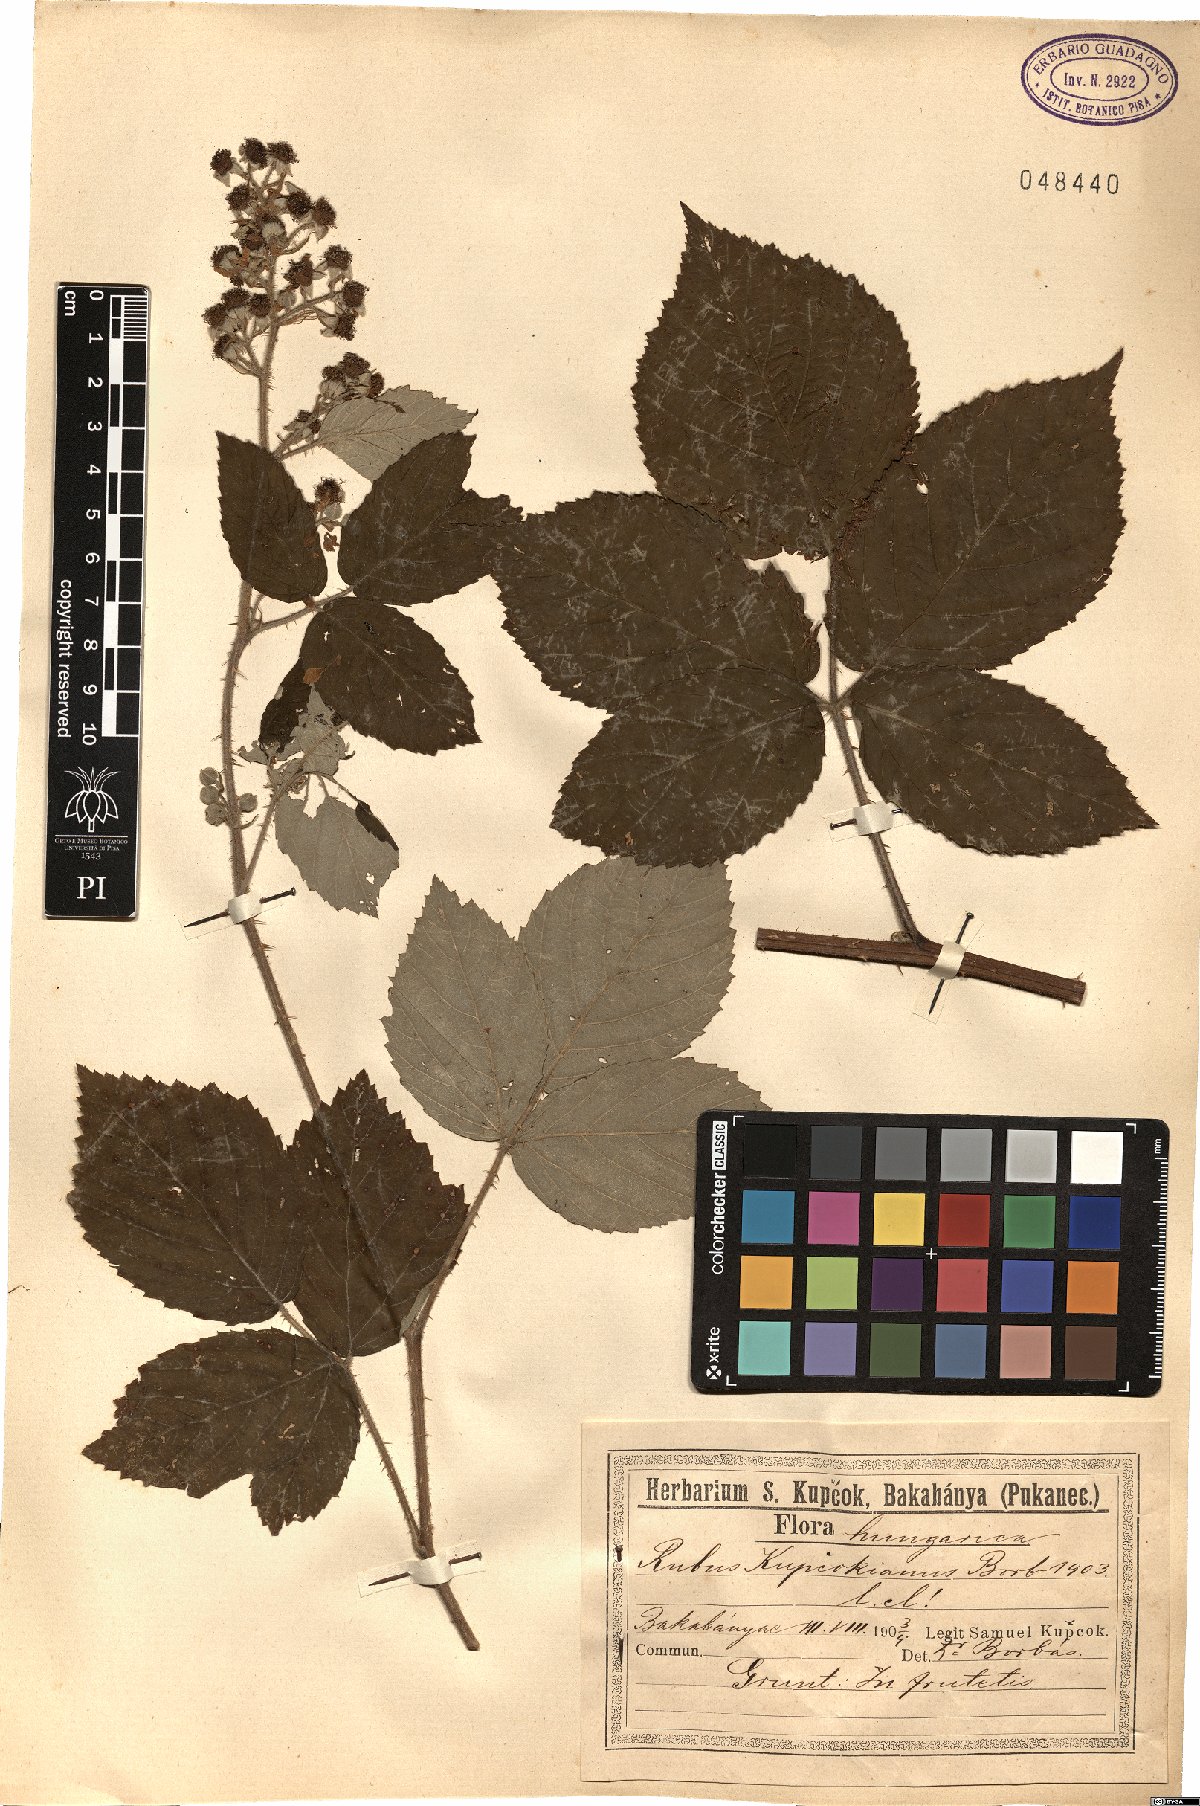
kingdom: Plantae
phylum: Tracheophyta
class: Magnoliopsida
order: Rosales
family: Rosaceae
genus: Rubus
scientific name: Rubus kupcokianus
